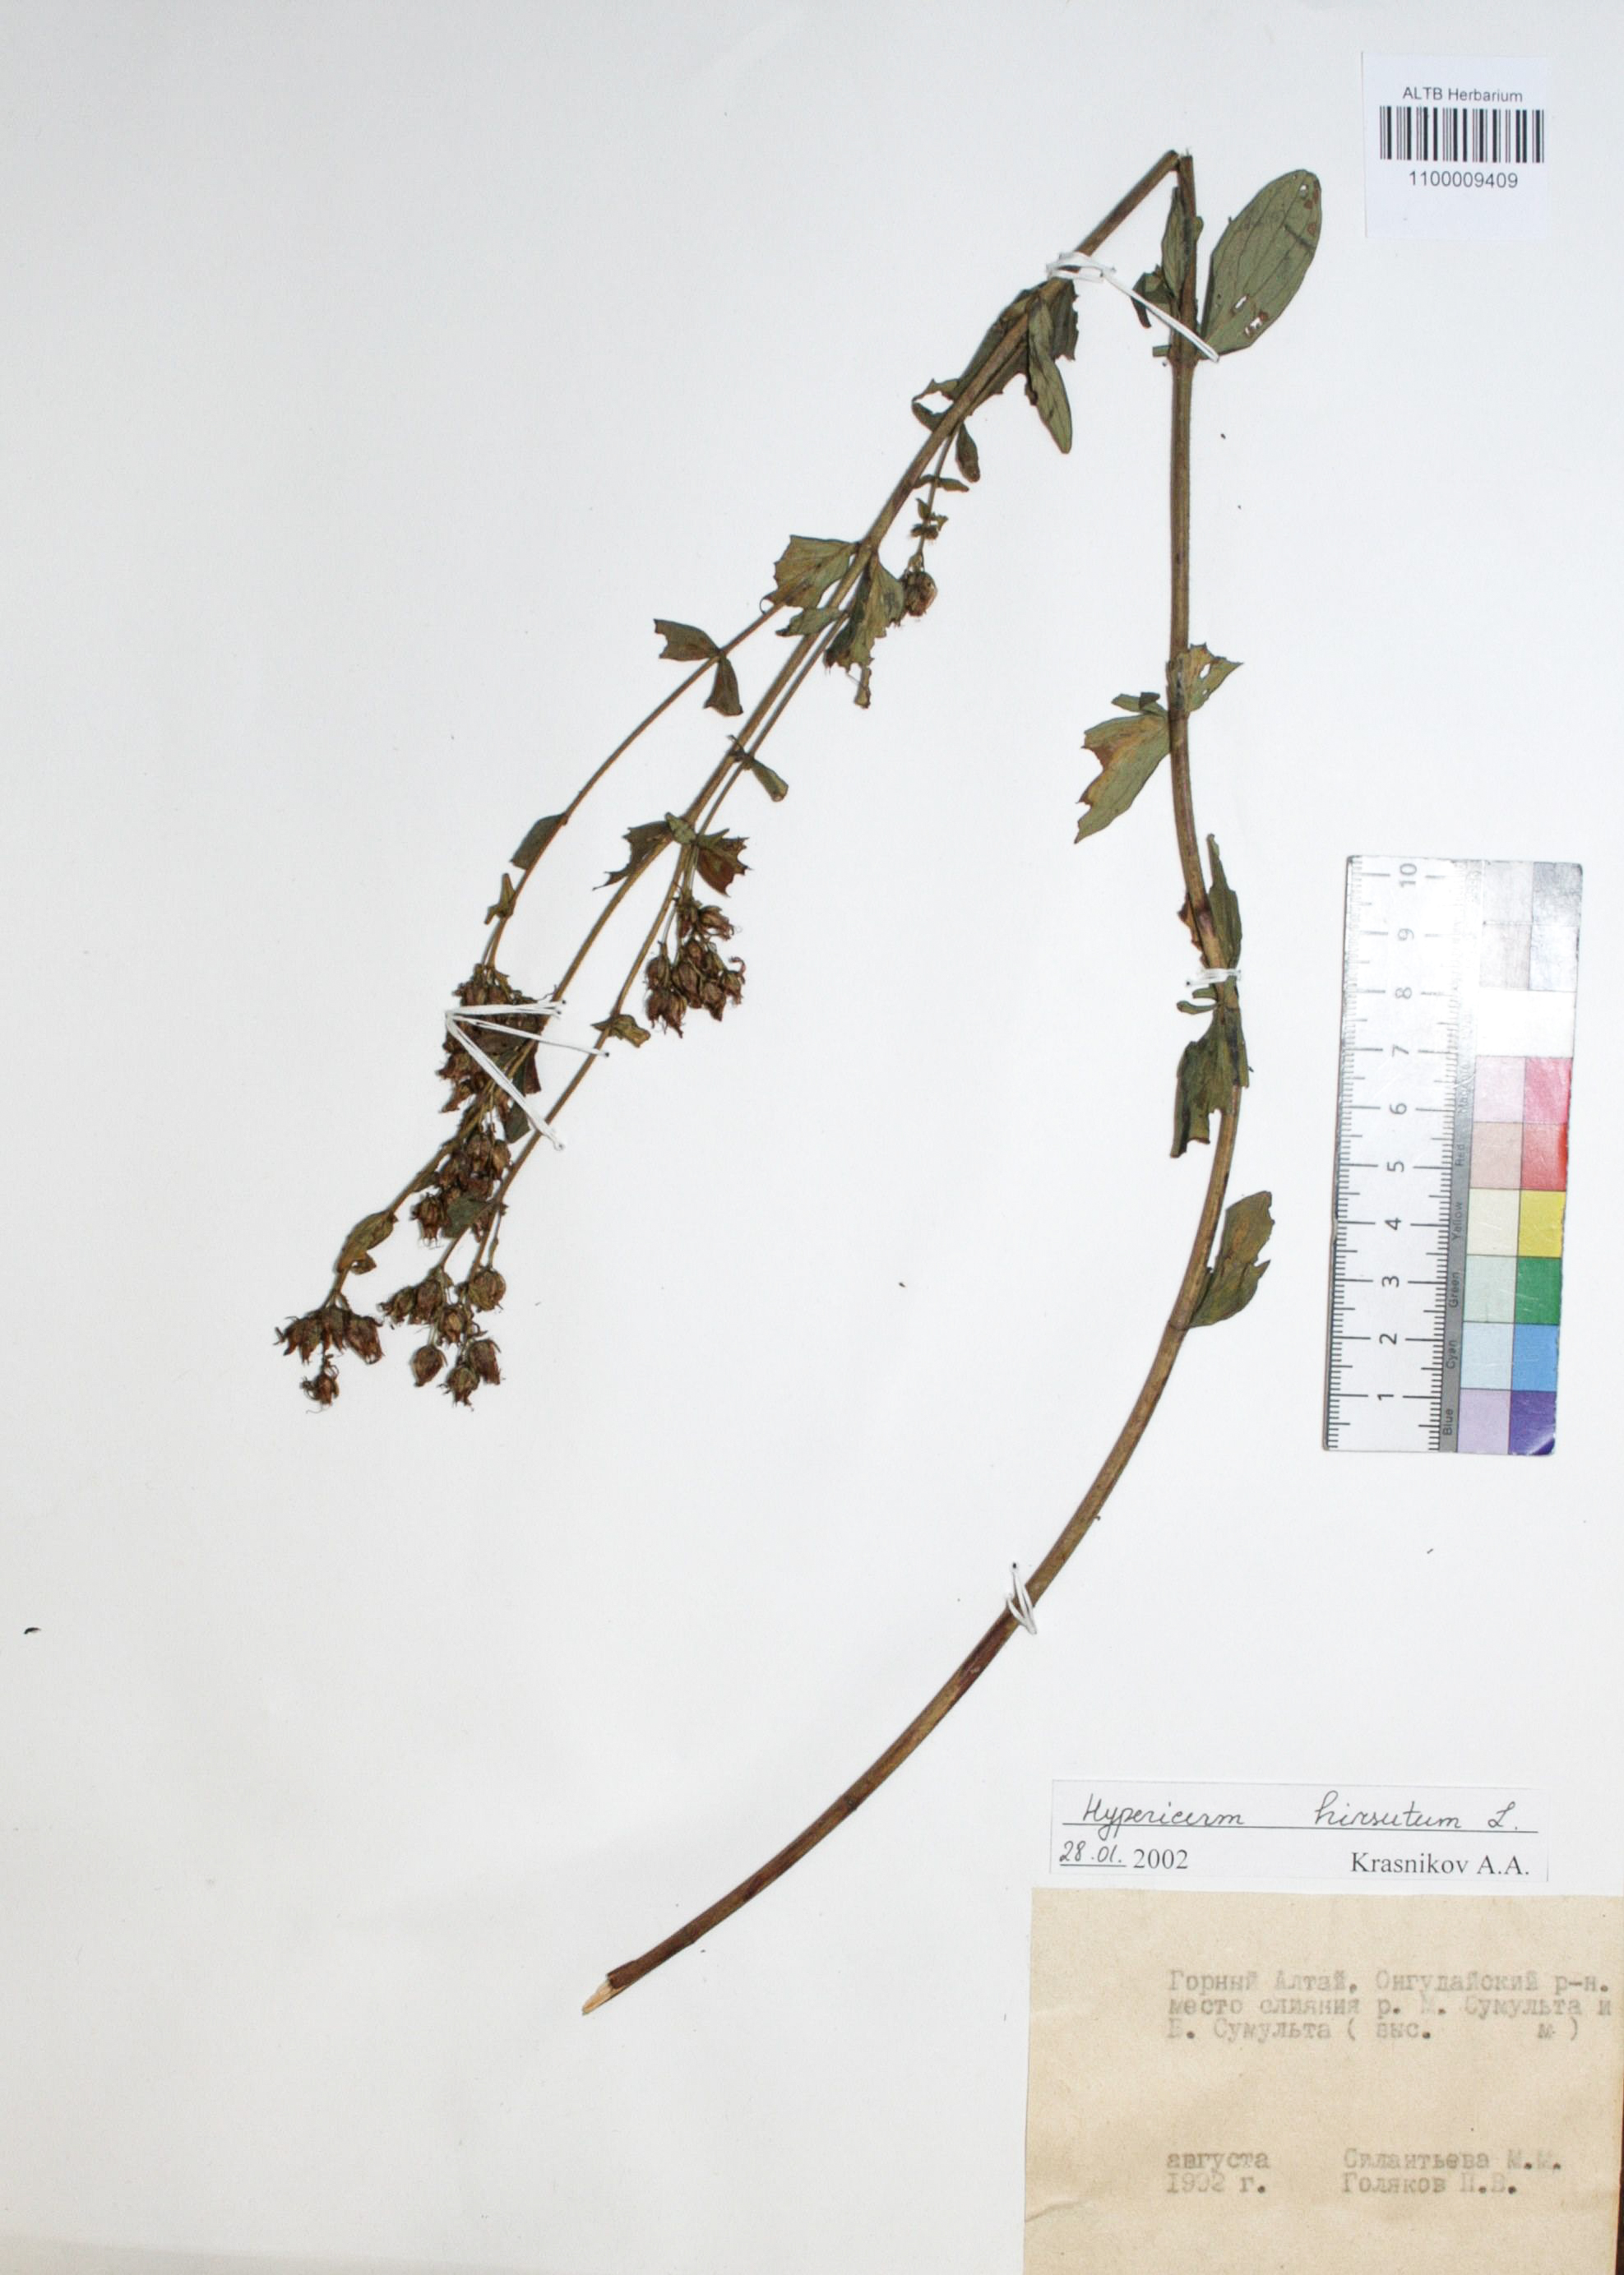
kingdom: Plantae
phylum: Tracheophyta
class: Magnoliopsida
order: Malpighiales
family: Hypericaceae
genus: Hypericum
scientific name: Hypericum hirsutum
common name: Hairy st. john's-wort
